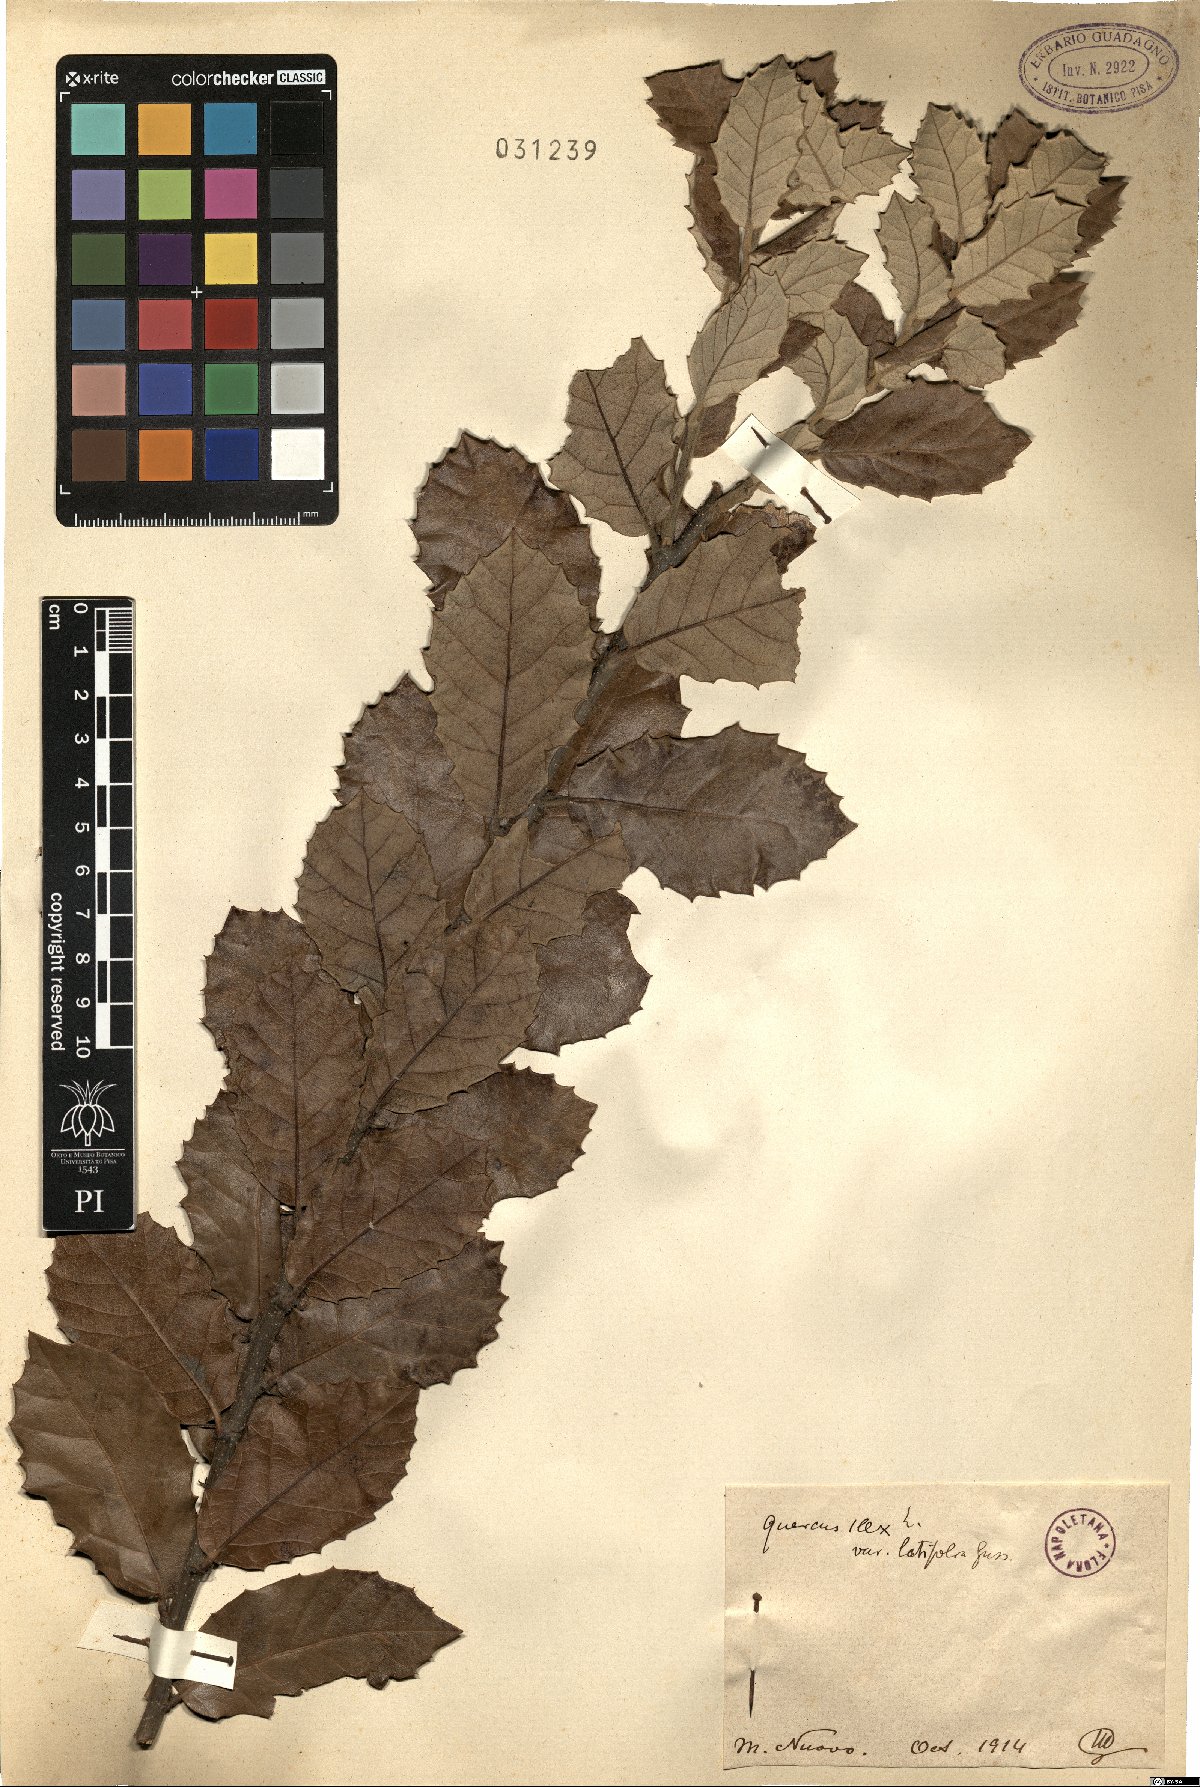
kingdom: Plantae
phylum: Tracheophyta
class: Magnoliopsida
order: Fagales
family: Fagaceae
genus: Quercus
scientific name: Quercus ilex
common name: Evergreen oak
